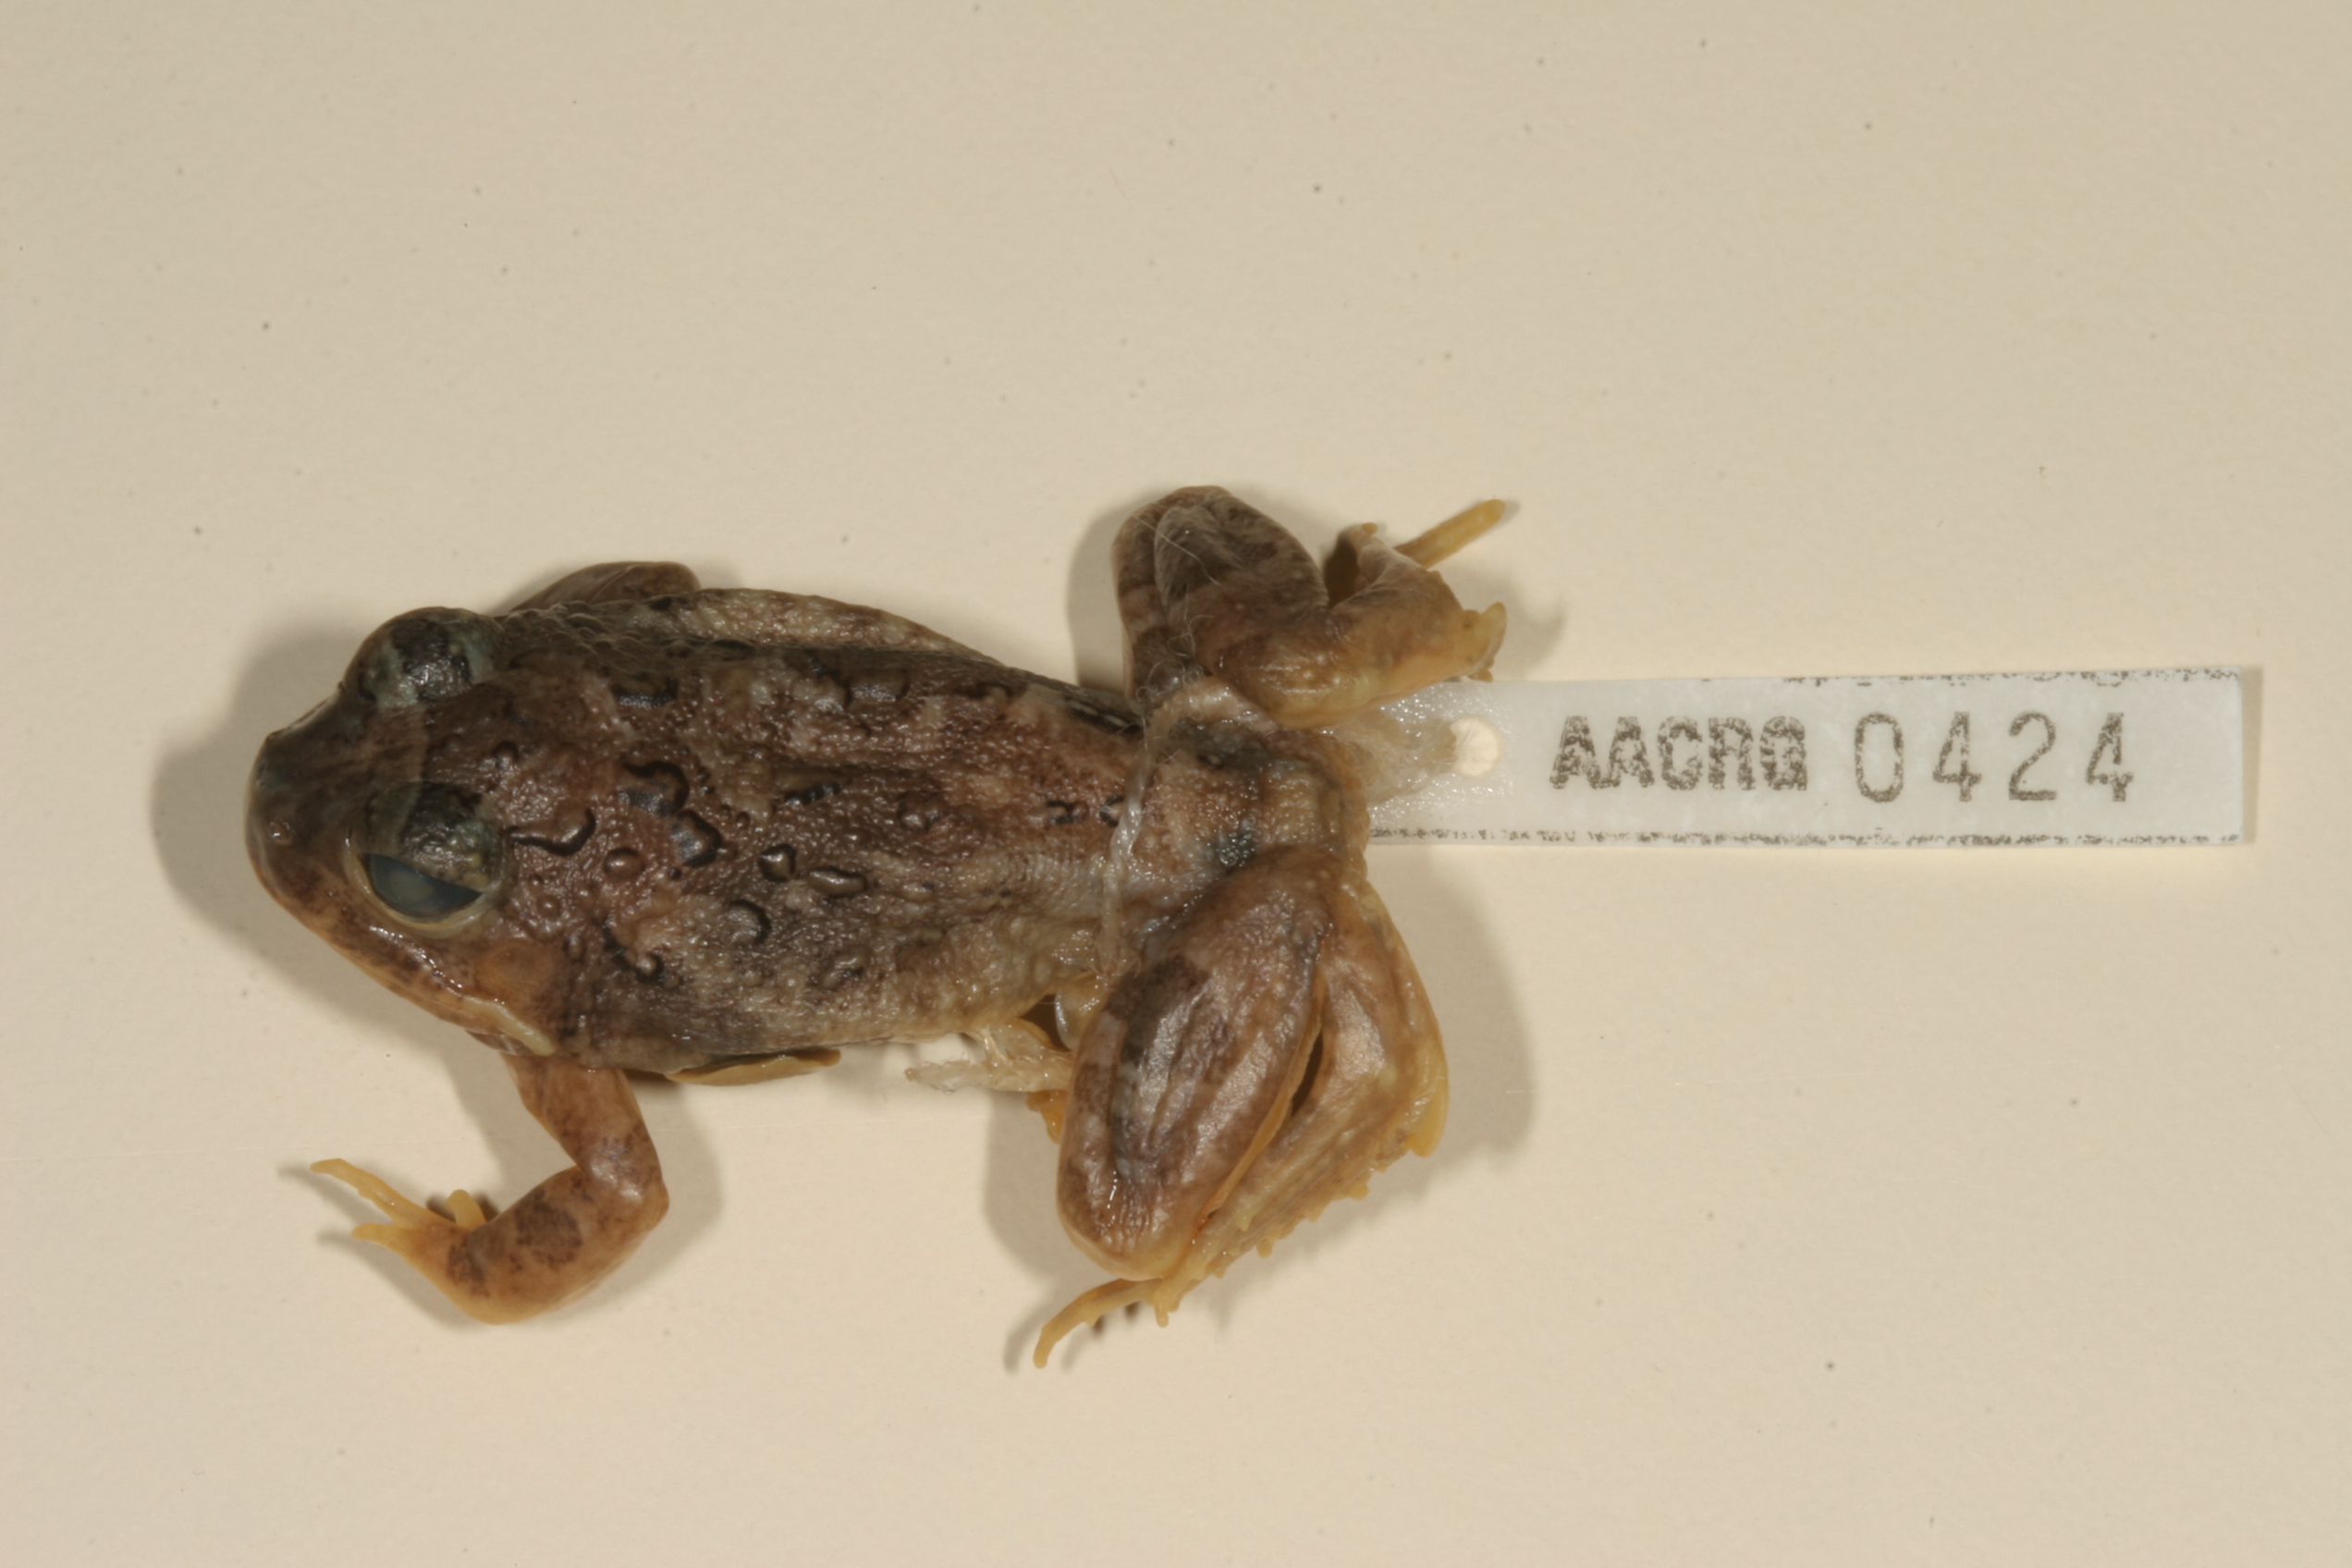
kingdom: Animalia
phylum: Chordata
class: Amphibia
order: Anura
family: Pyxicephalidae
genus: Tomopterna
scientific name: Tomopterna cryptotis
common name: Catequero bullfrog
